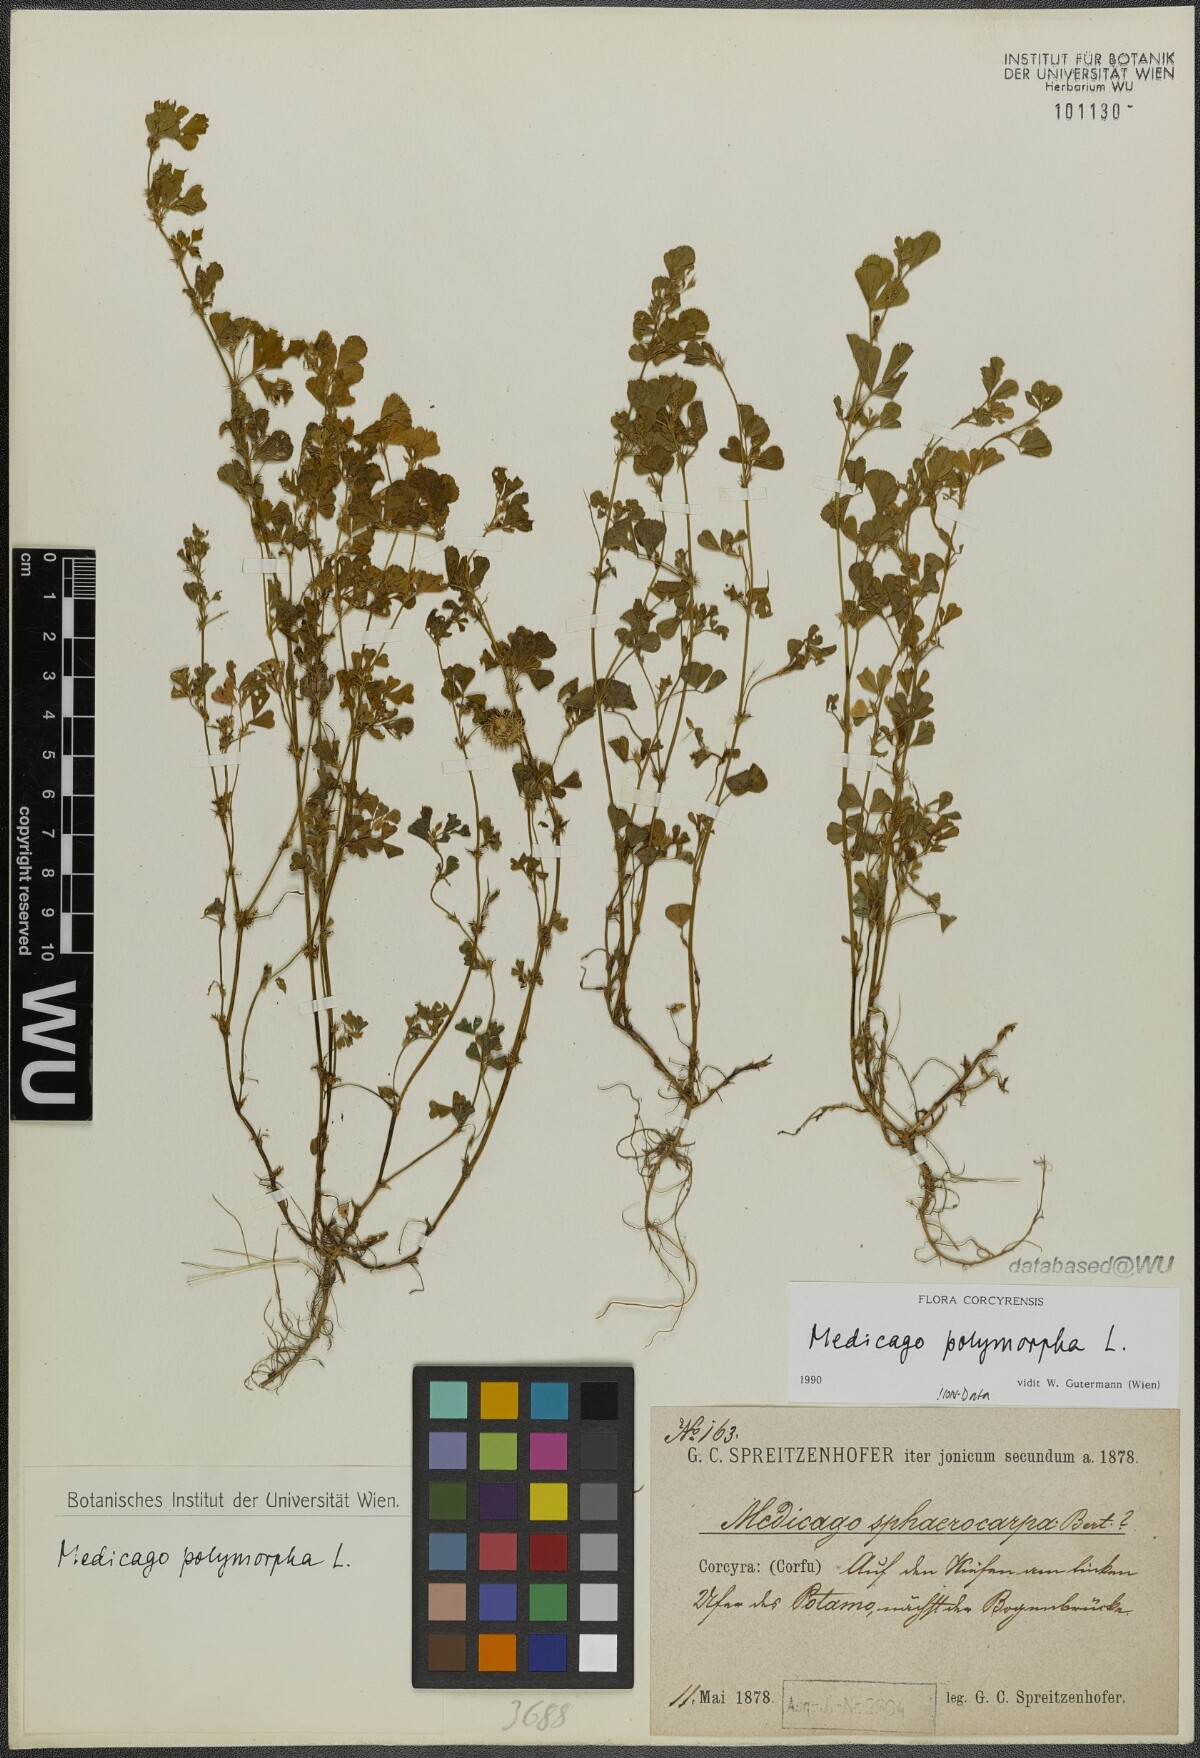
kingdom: Plantae
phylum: Tracheophyta
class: Magnoliopsida
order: Fabales
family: Fabaceae
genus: Medicago
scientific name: Medicago polymorpha
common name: Burclover
